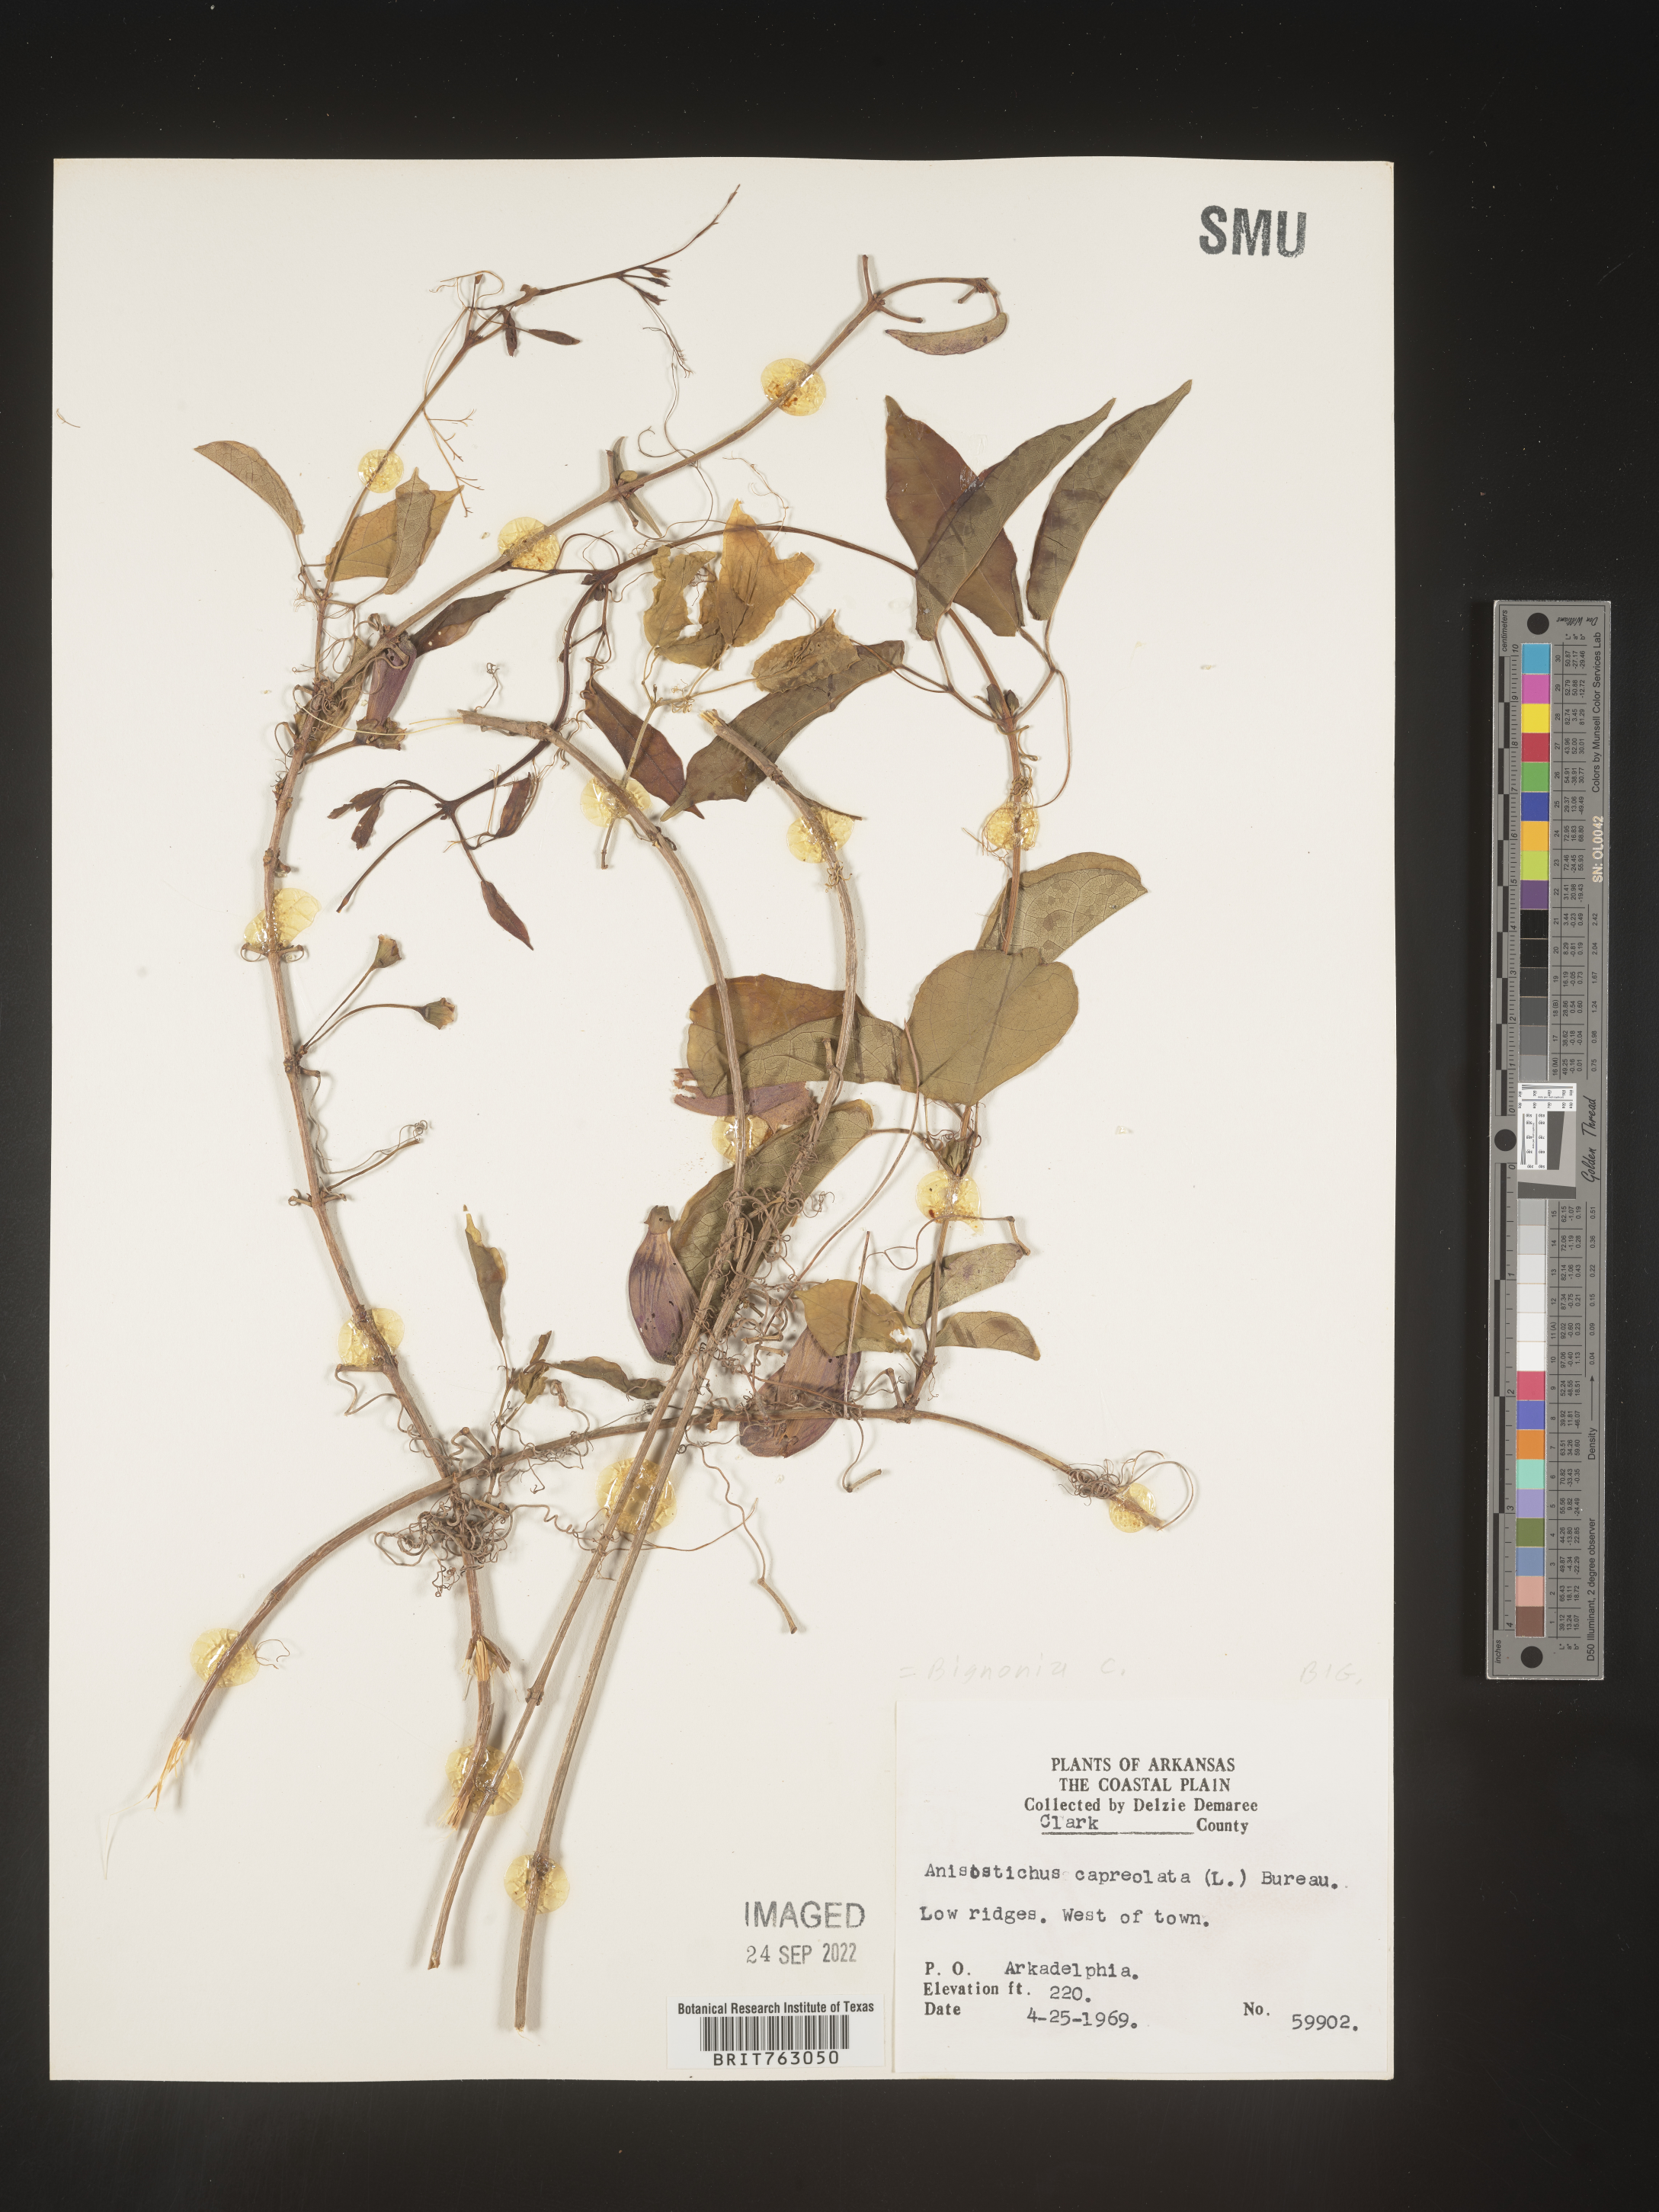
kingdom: Plantae
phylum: Tracheophyta
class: Magnoliopsida
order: Lamiales
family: Bignoniaceae
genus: Bignonia
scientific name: Bignonia capreolata
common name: Crossvine
